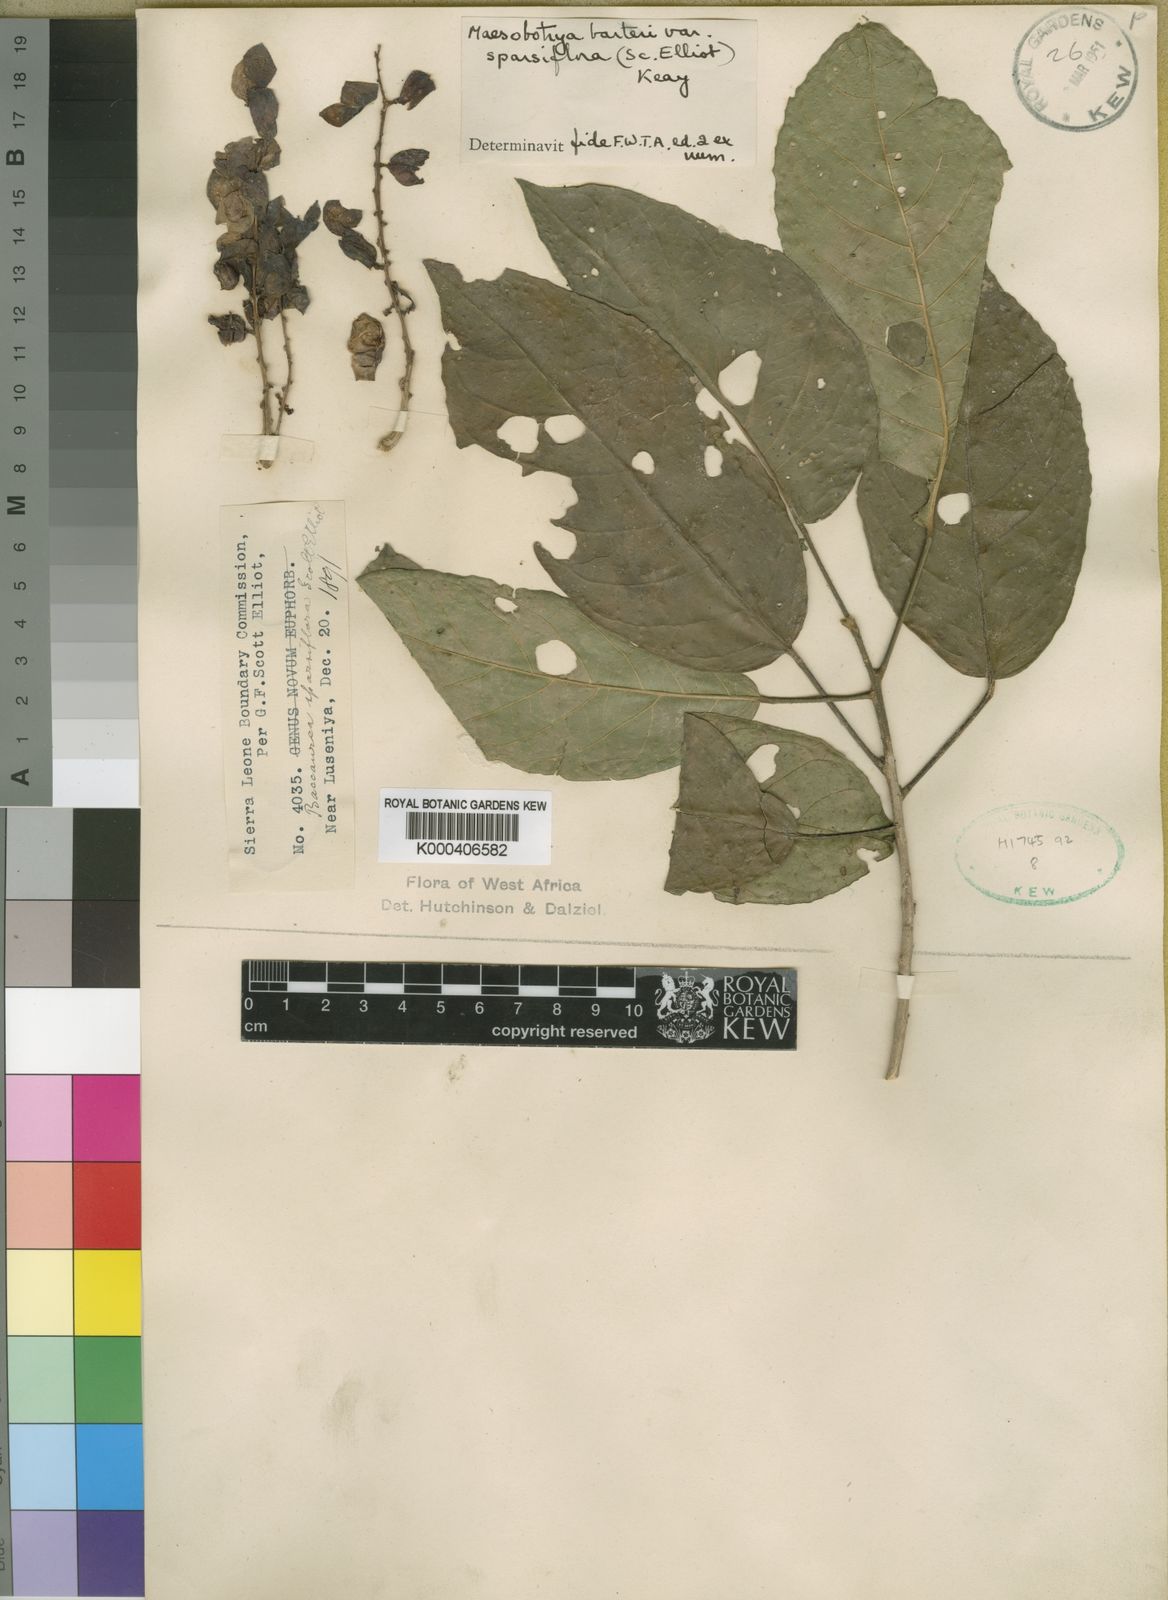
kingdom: Plantae
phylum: Tracheophyta
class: Magnoliopsida
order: Malpighiales
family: Phyllanthaceae
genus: Maesobotrya
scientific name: Maesobotrya barteri
